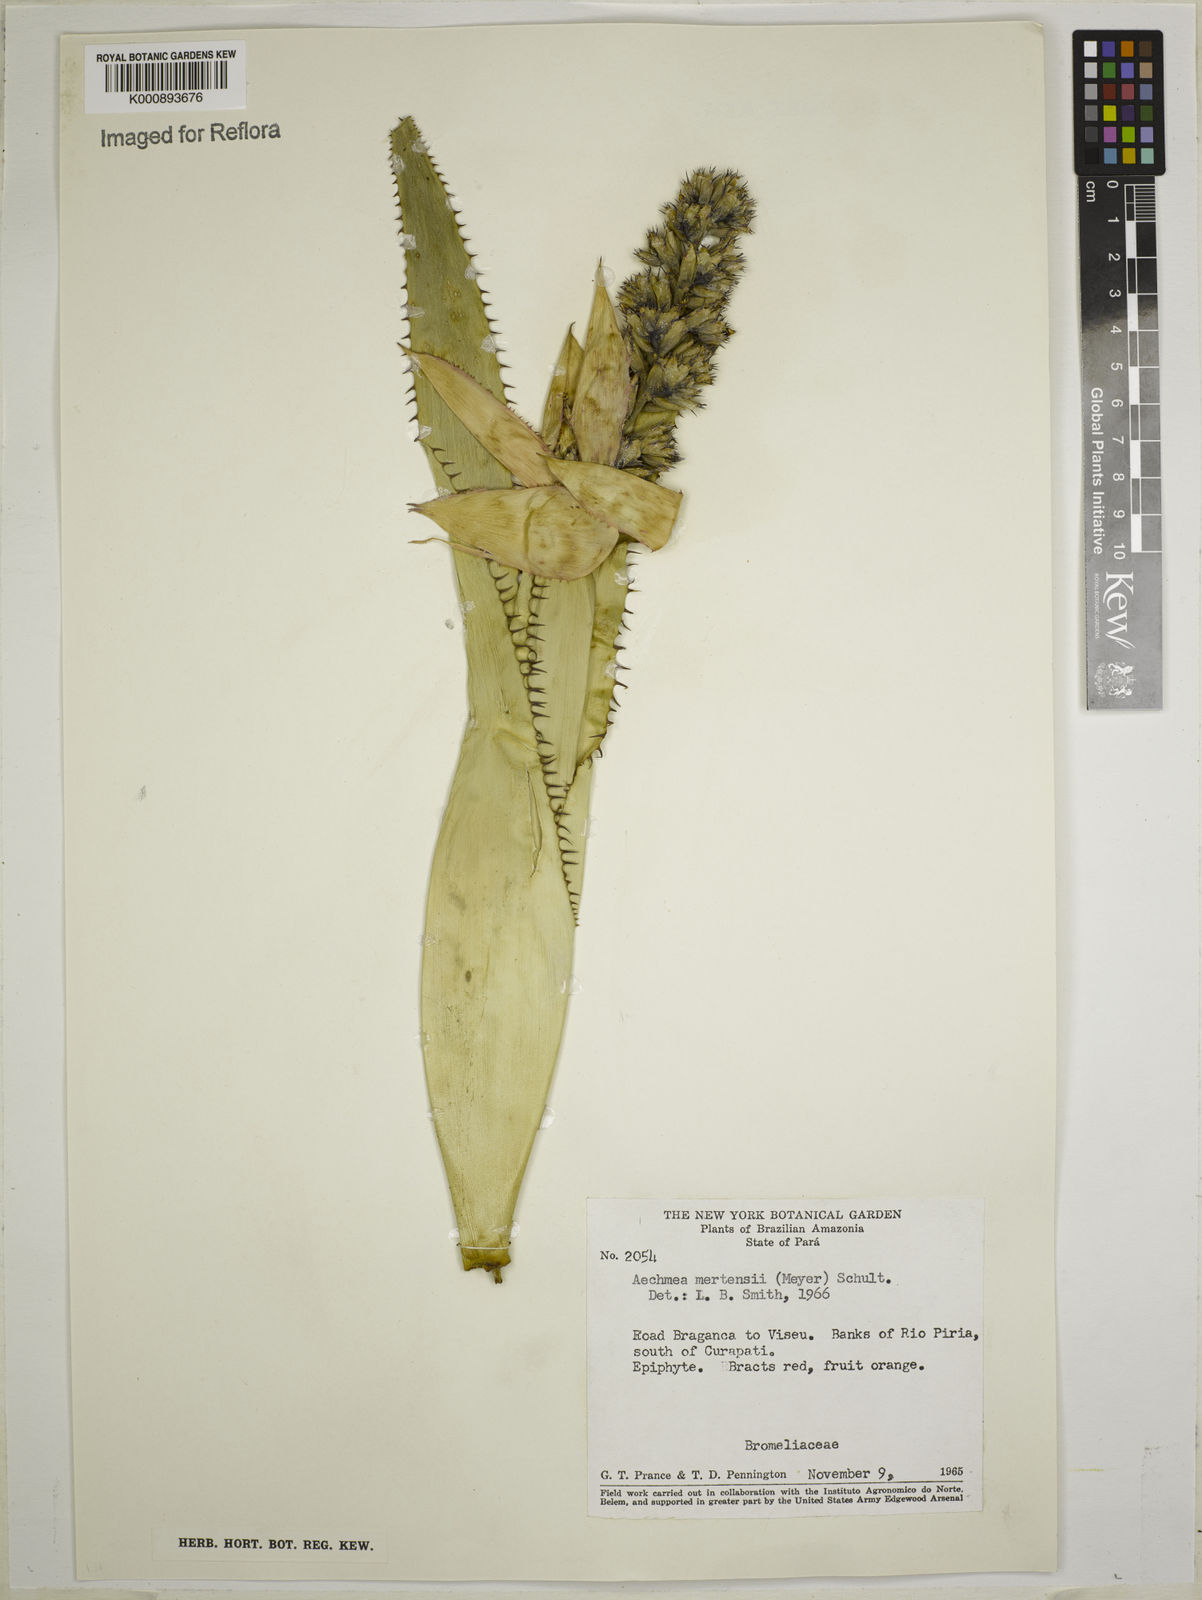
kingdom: Plantae
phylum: Tracheophyta
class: Liliopsida
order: Poales
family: Bromeliaceae
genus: Aechmea
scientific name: Aechmea mertensii
